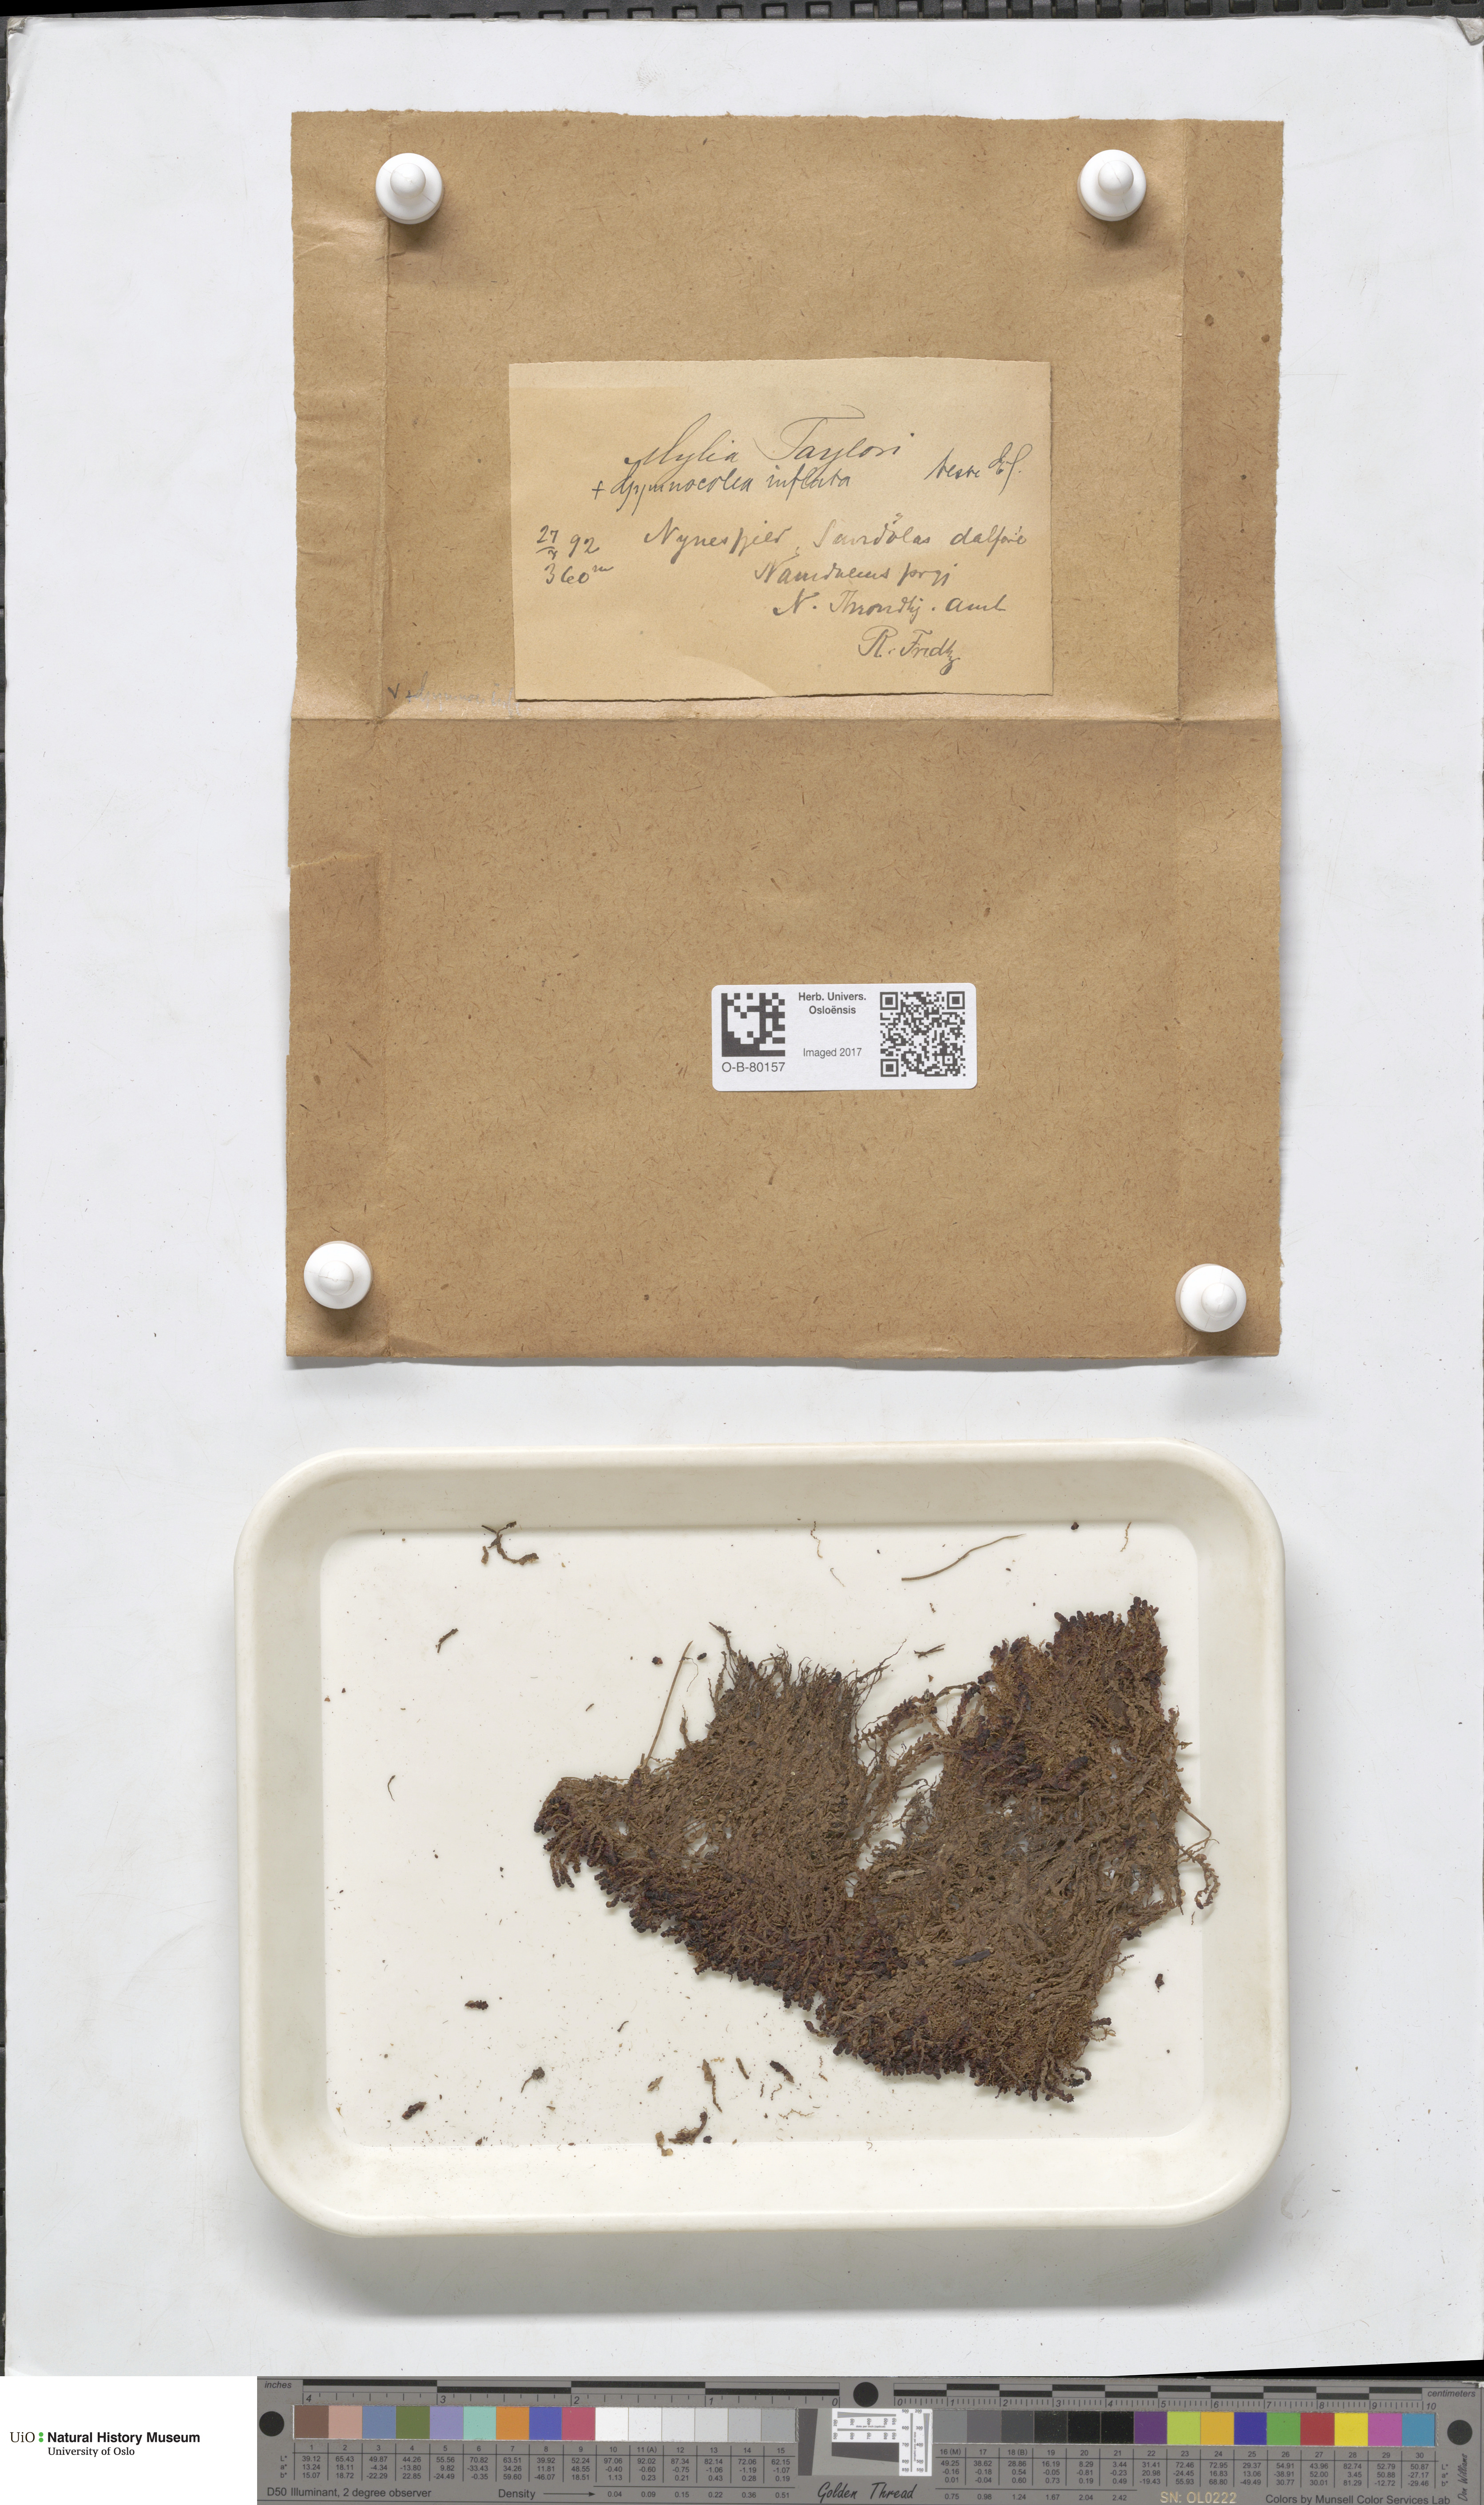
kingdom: Plantae
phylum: Marchantiophyta
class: Jungermanniopsida
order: Jungermanniales
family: Myliaceae
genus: Mylia
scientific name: Mylia taylorii
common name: Taylor s flapwort
